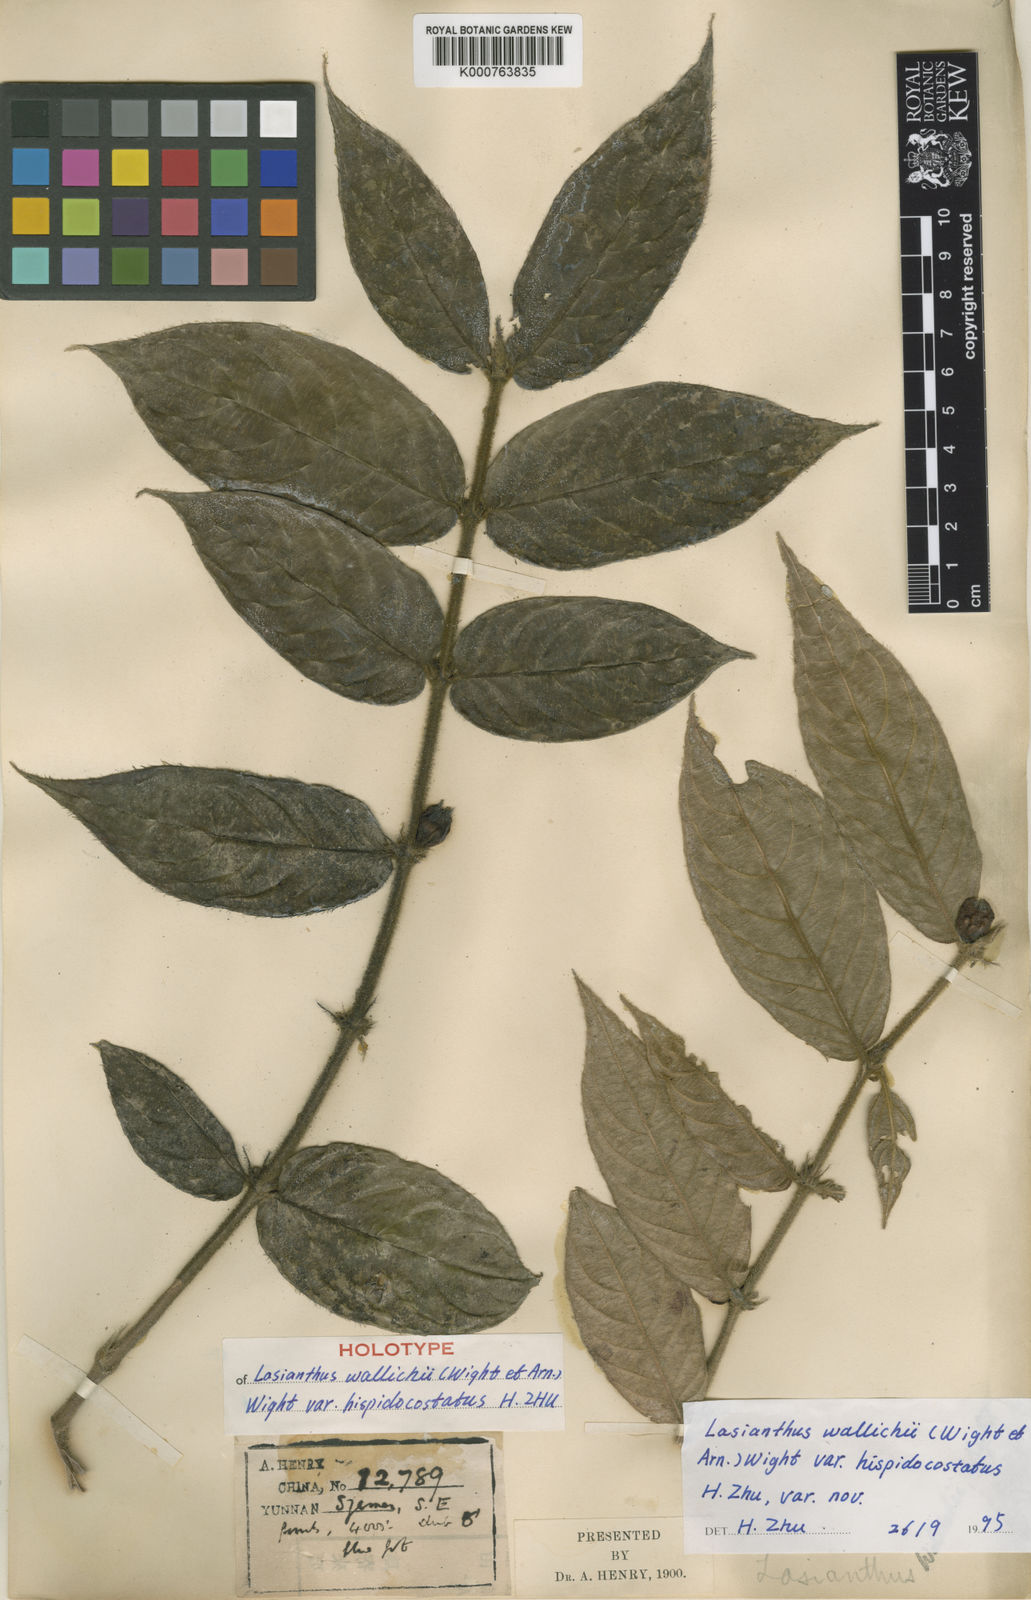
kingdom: Plantae
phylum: Tracheophyta
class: Magnoliopsida
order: Gentianales
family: Rubiaceae
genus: Lasianthus
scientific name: Lasianthus attenuatus
